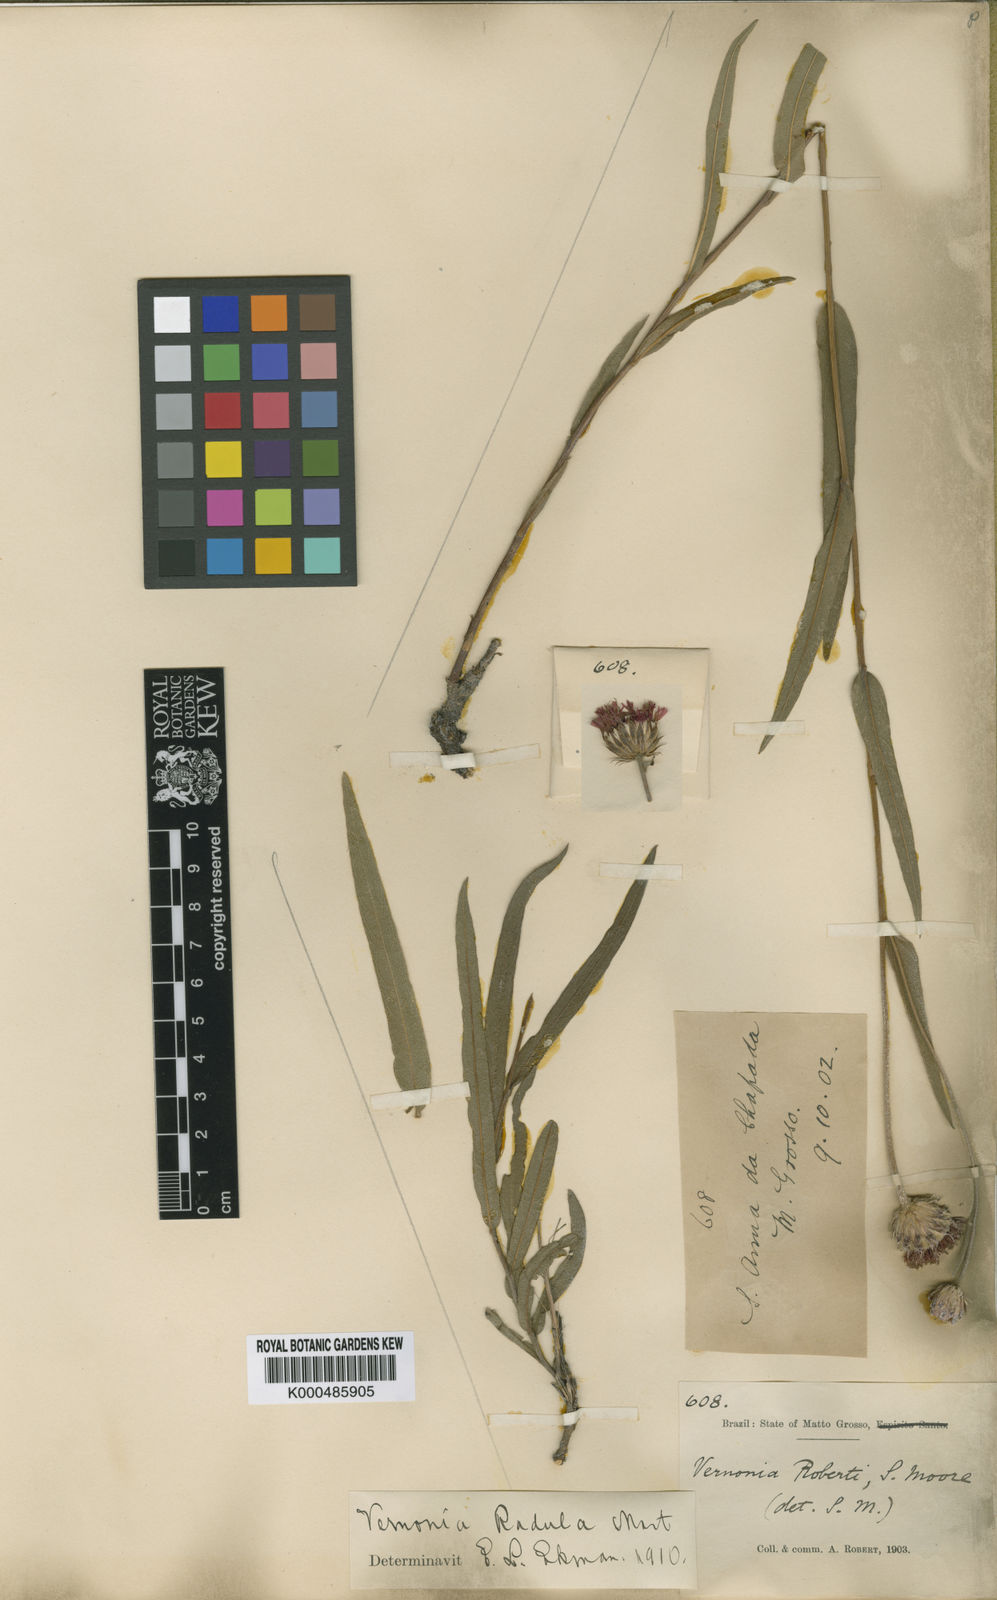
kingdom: Plantae
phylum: Tracheophyta
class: Magnoliopsida
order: Asterales
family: Asteraceae
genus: Lessingianthus
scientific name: Lessingianthus glabratus
